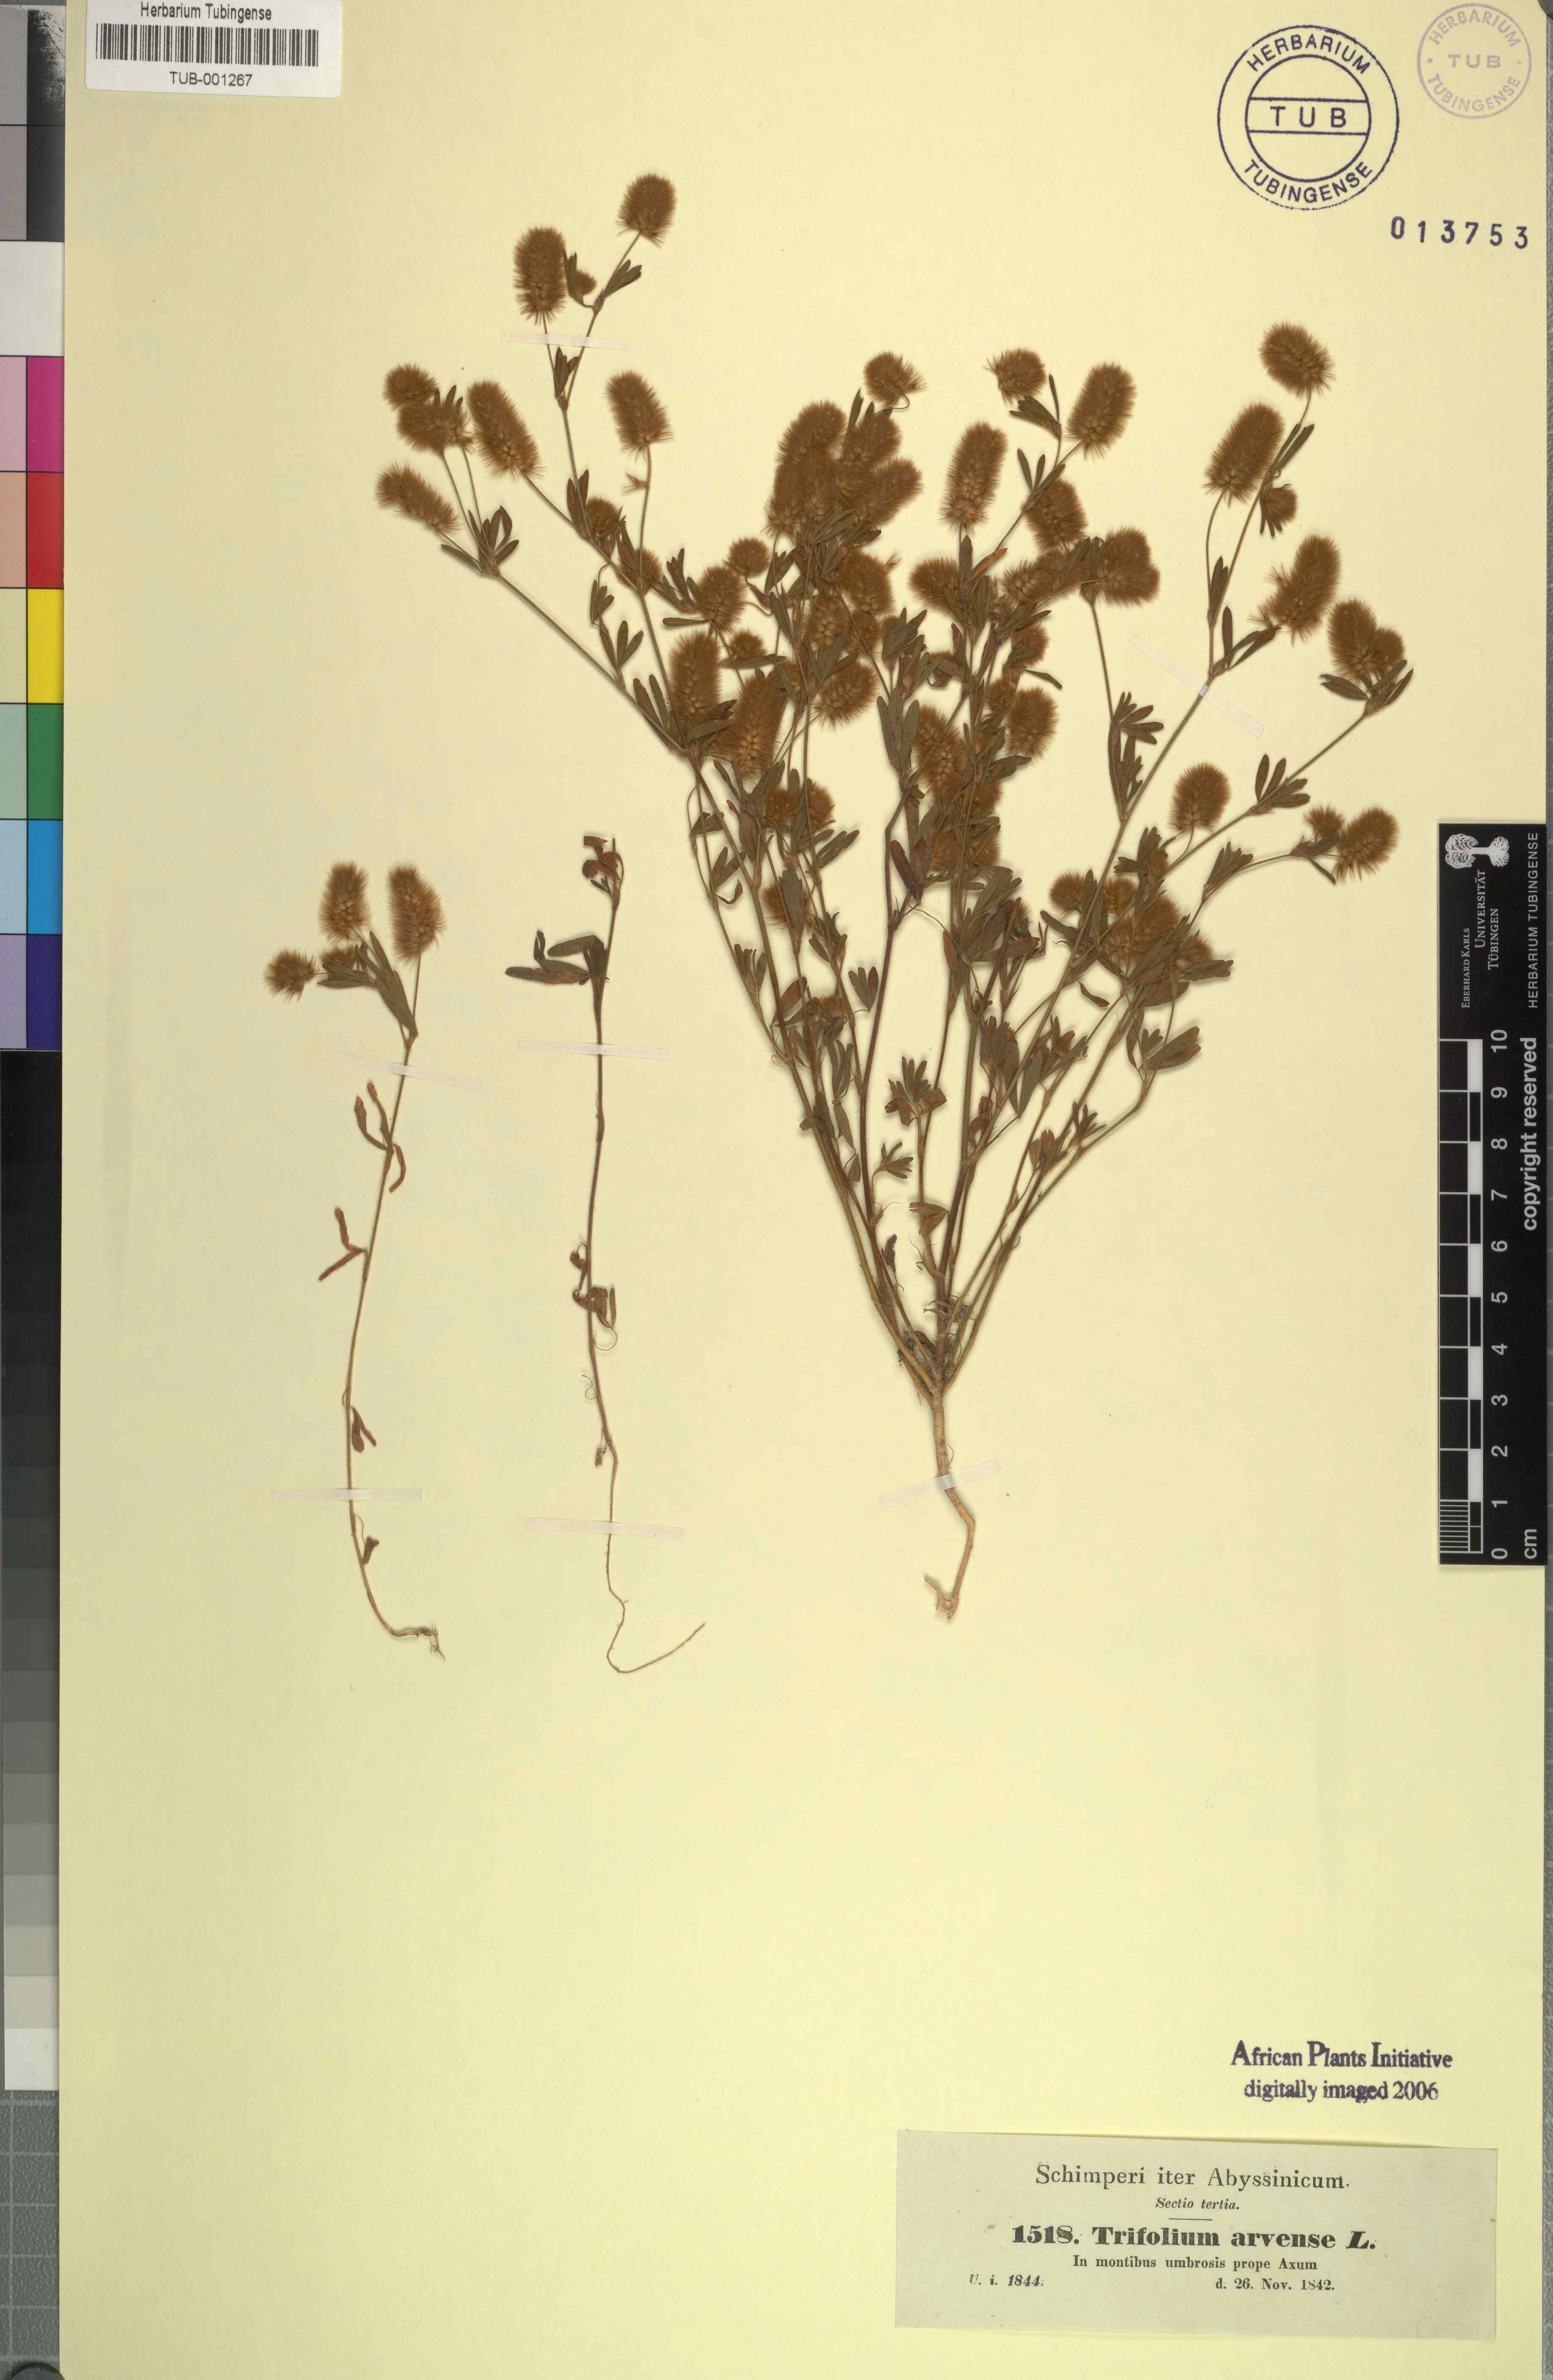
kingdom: Plantae
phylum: Tracheophyta
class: Magnoliopsida
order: Fabales
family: Fabaceae
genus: Trifolium
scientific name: Trifolium arvense
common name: Hare's-foot clover
